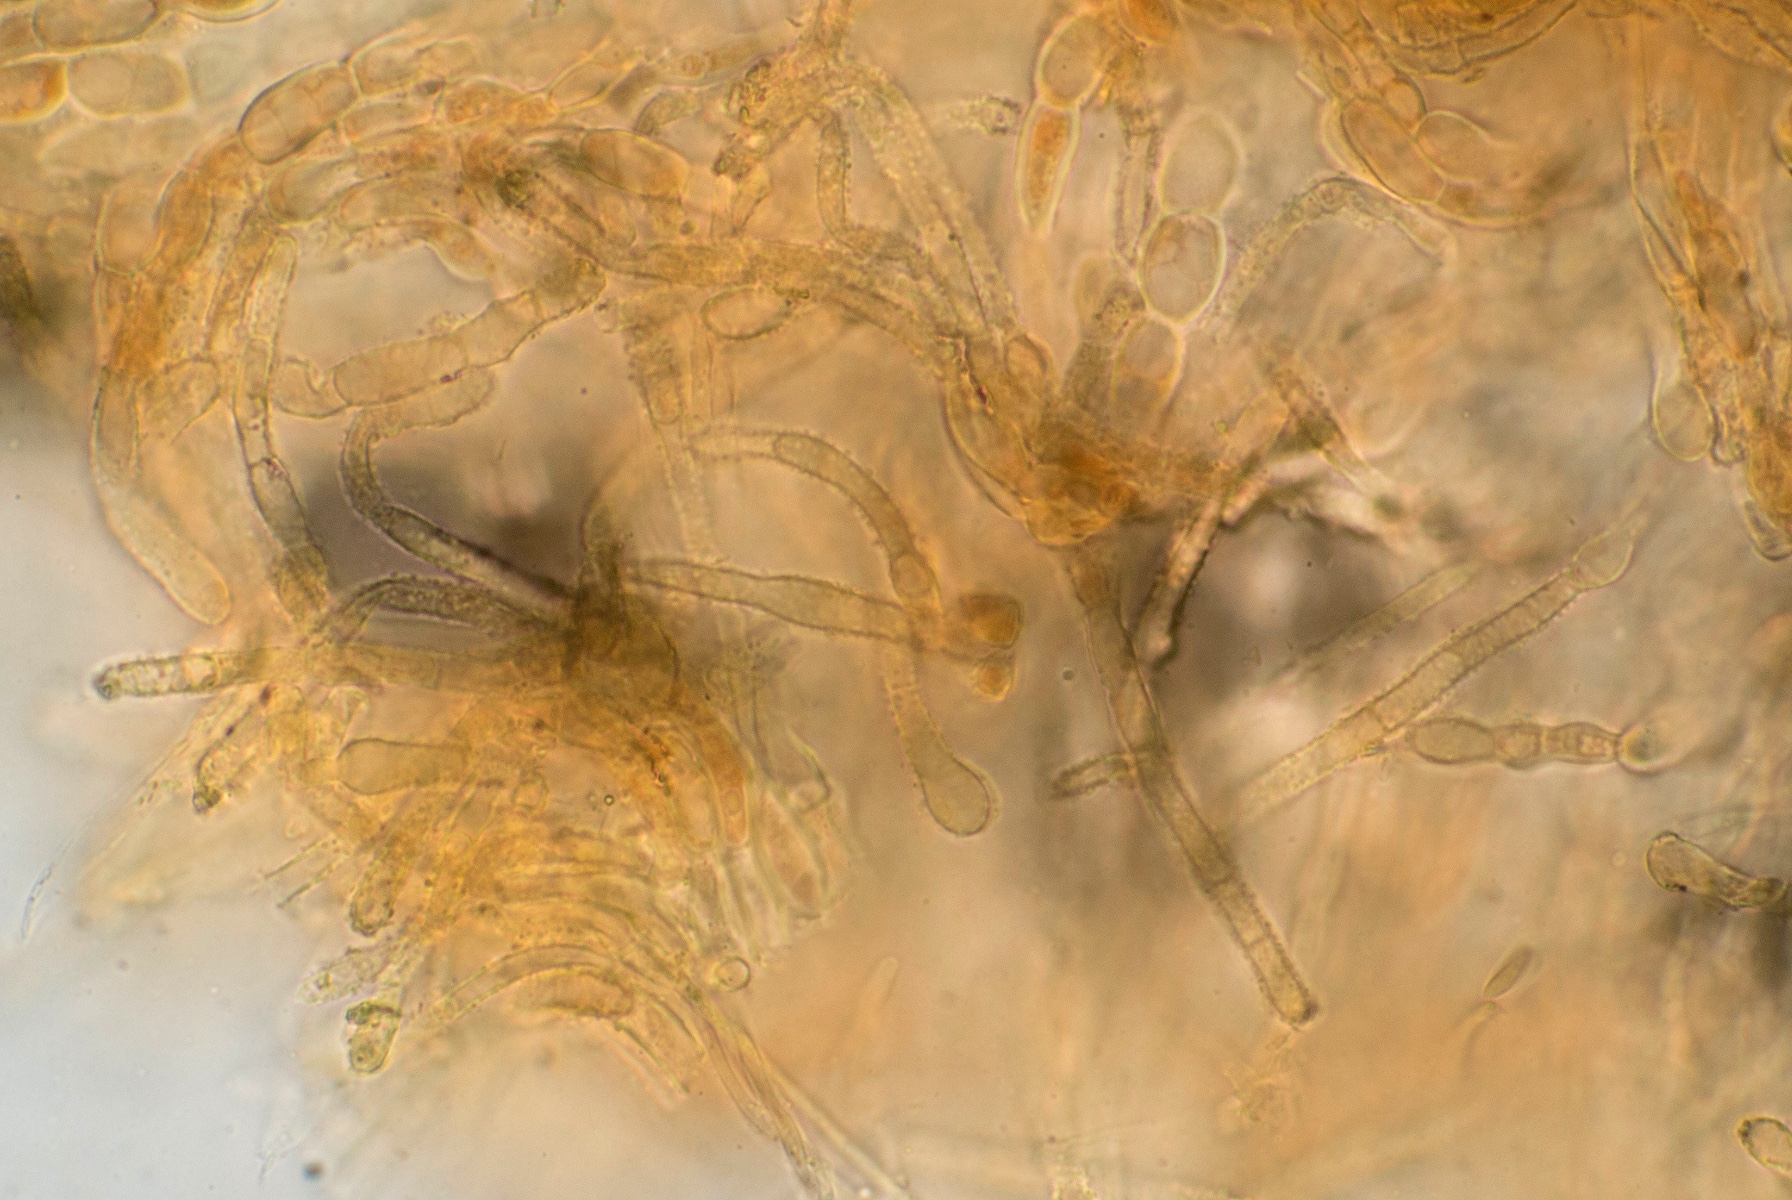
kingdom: Fungi
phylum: Ascomycota
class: Leotiomycetes
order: Helotiales
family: Lachnaceae
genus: Lachnellula
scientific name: Lachnellula subtilissima
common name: gran-frynseskive
